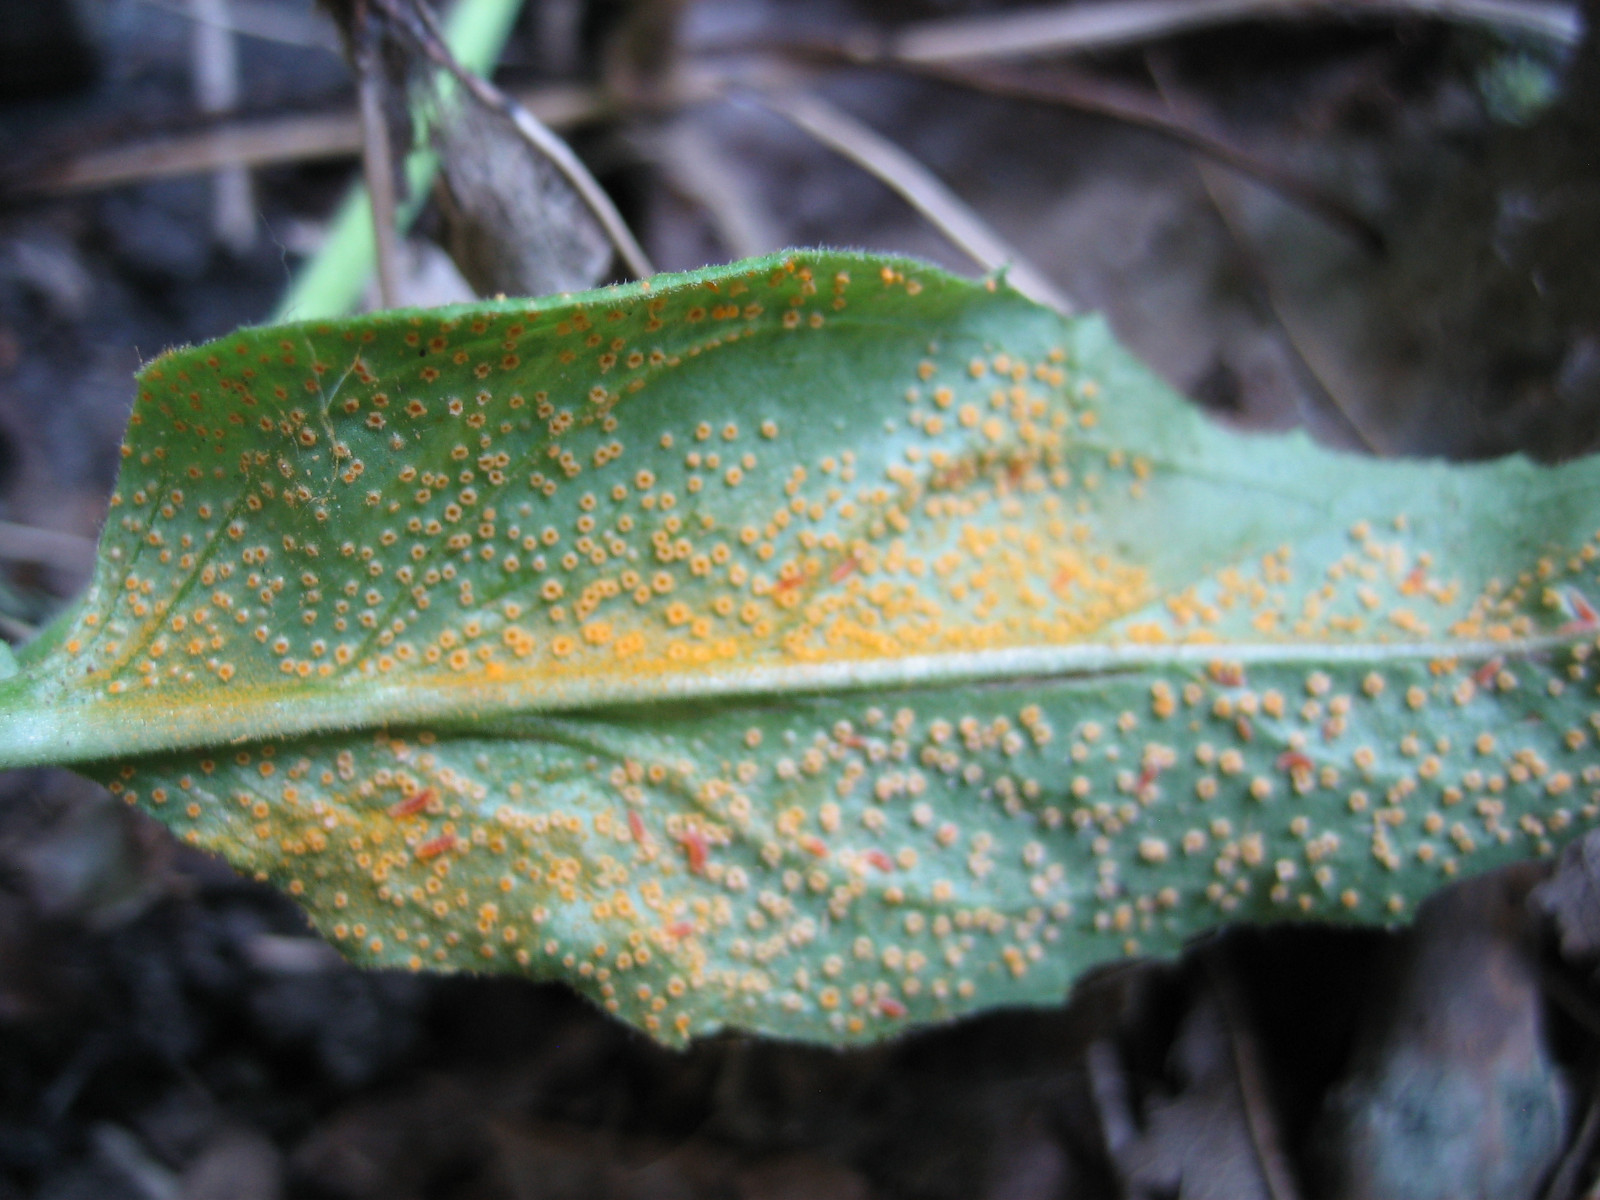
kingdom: Fungi
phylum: Basidiomycota
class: Pucciniomycetes
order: Pucciniales
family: Pucciniaceae
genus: Puccinia
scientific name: Puccinia pulverulenta
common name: dueurt-tvecellerust
